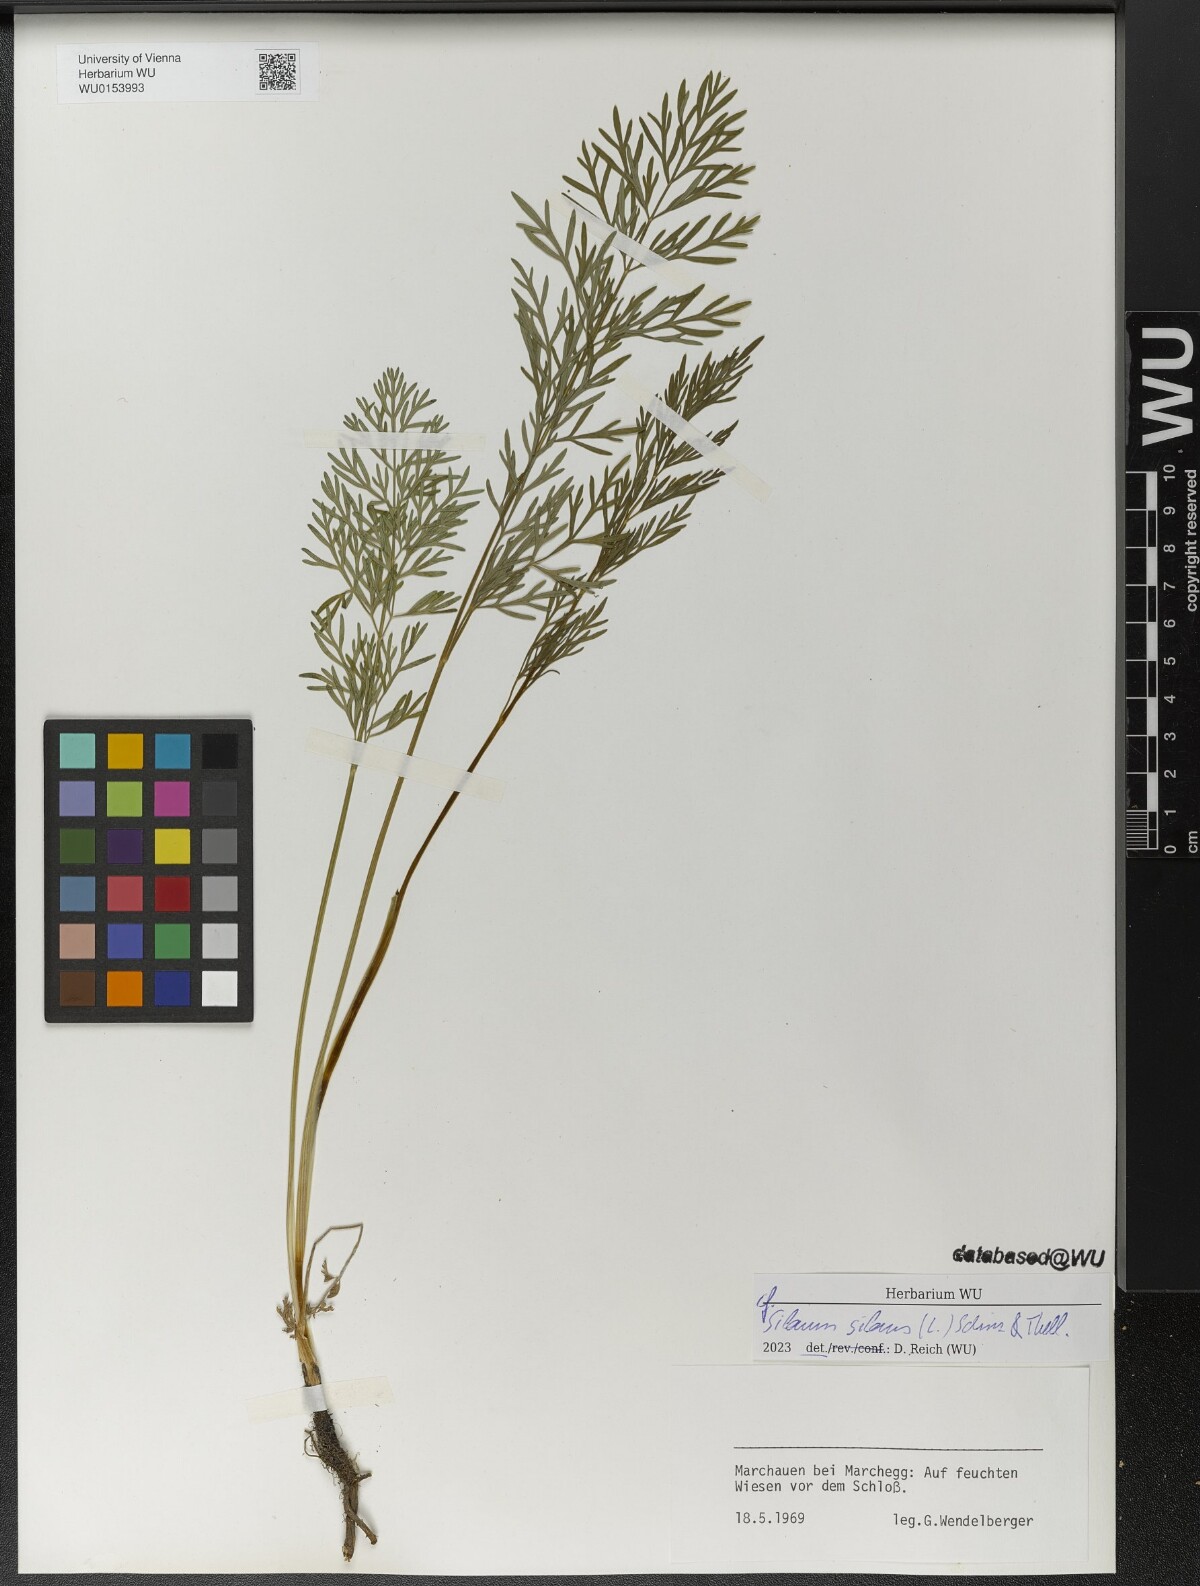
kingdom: Plantae
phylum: Tracheophyta
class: Magnoliopsida
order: Apiales
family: Apiaceae
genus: Silaum
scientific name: Silaum silaus
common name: Pepper-saxifrage
